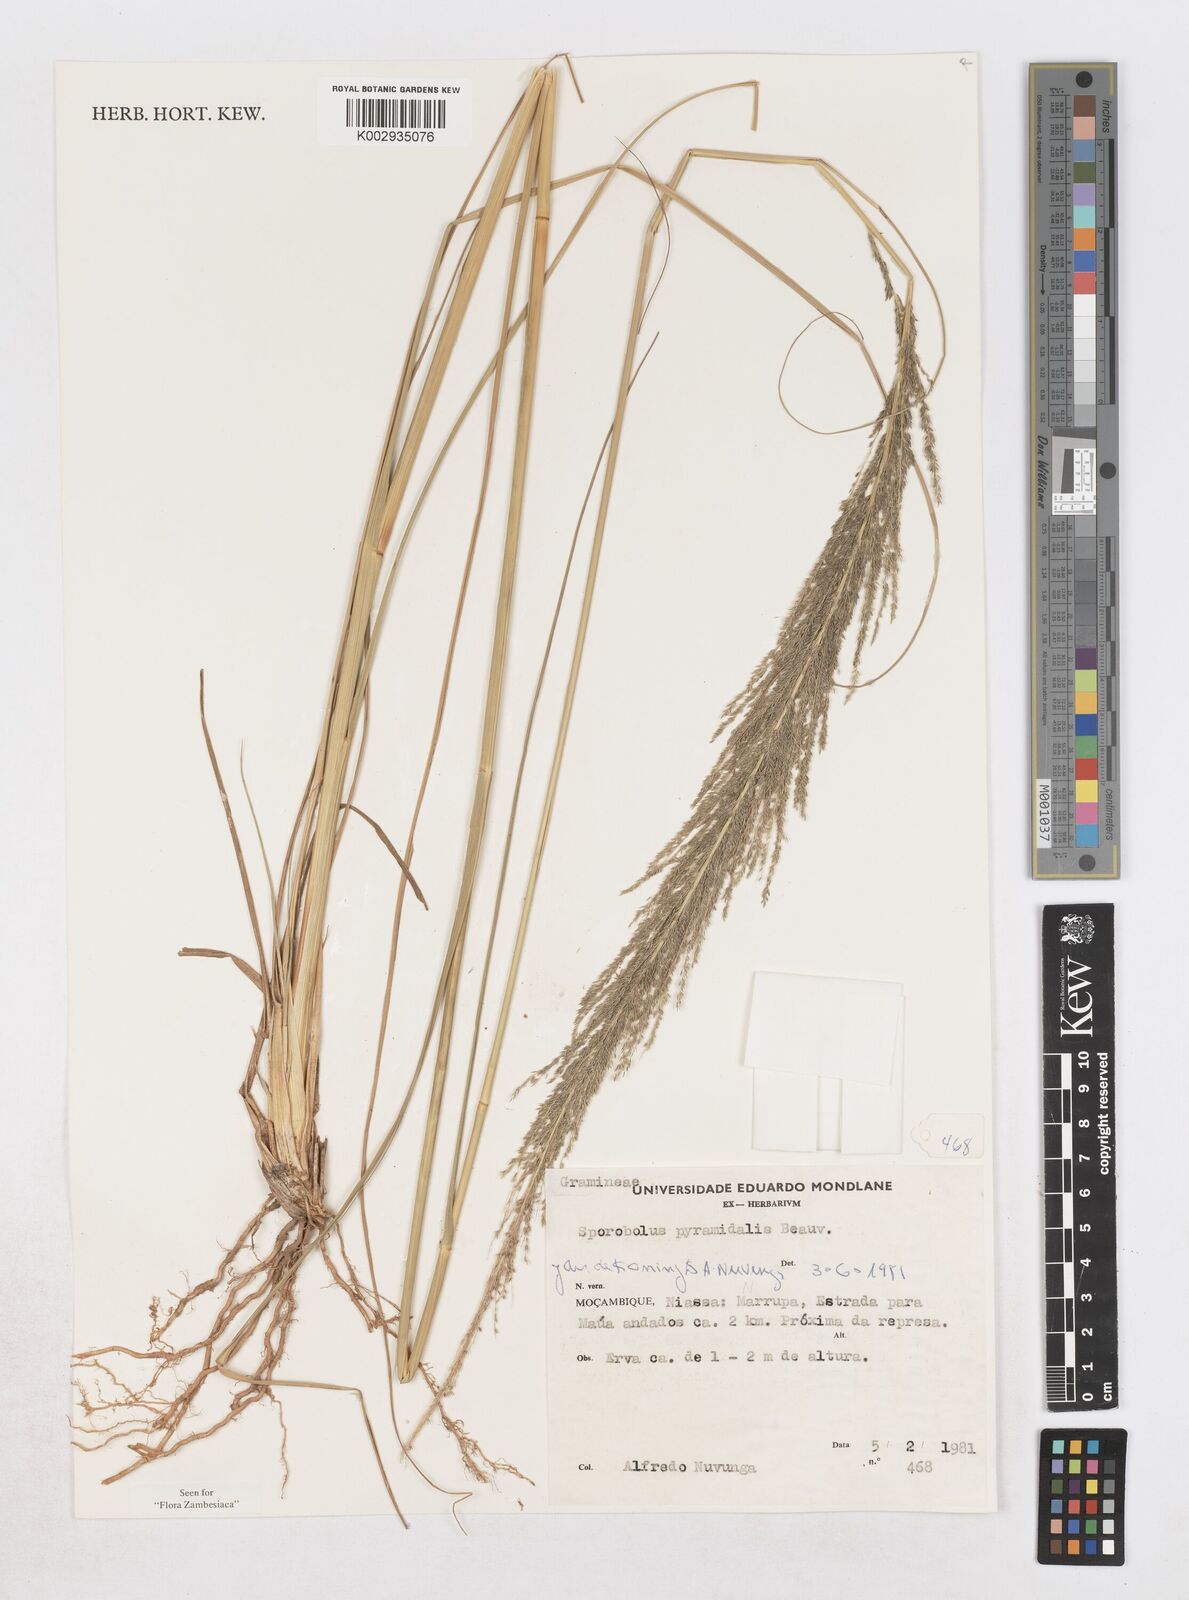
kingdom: Plantae
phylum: Tracheophyta
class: Liliopsida
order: Poales
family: Poaceae
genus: Sporobolus
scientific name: Sporobolus pyramidalis
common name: West indian dropseed
